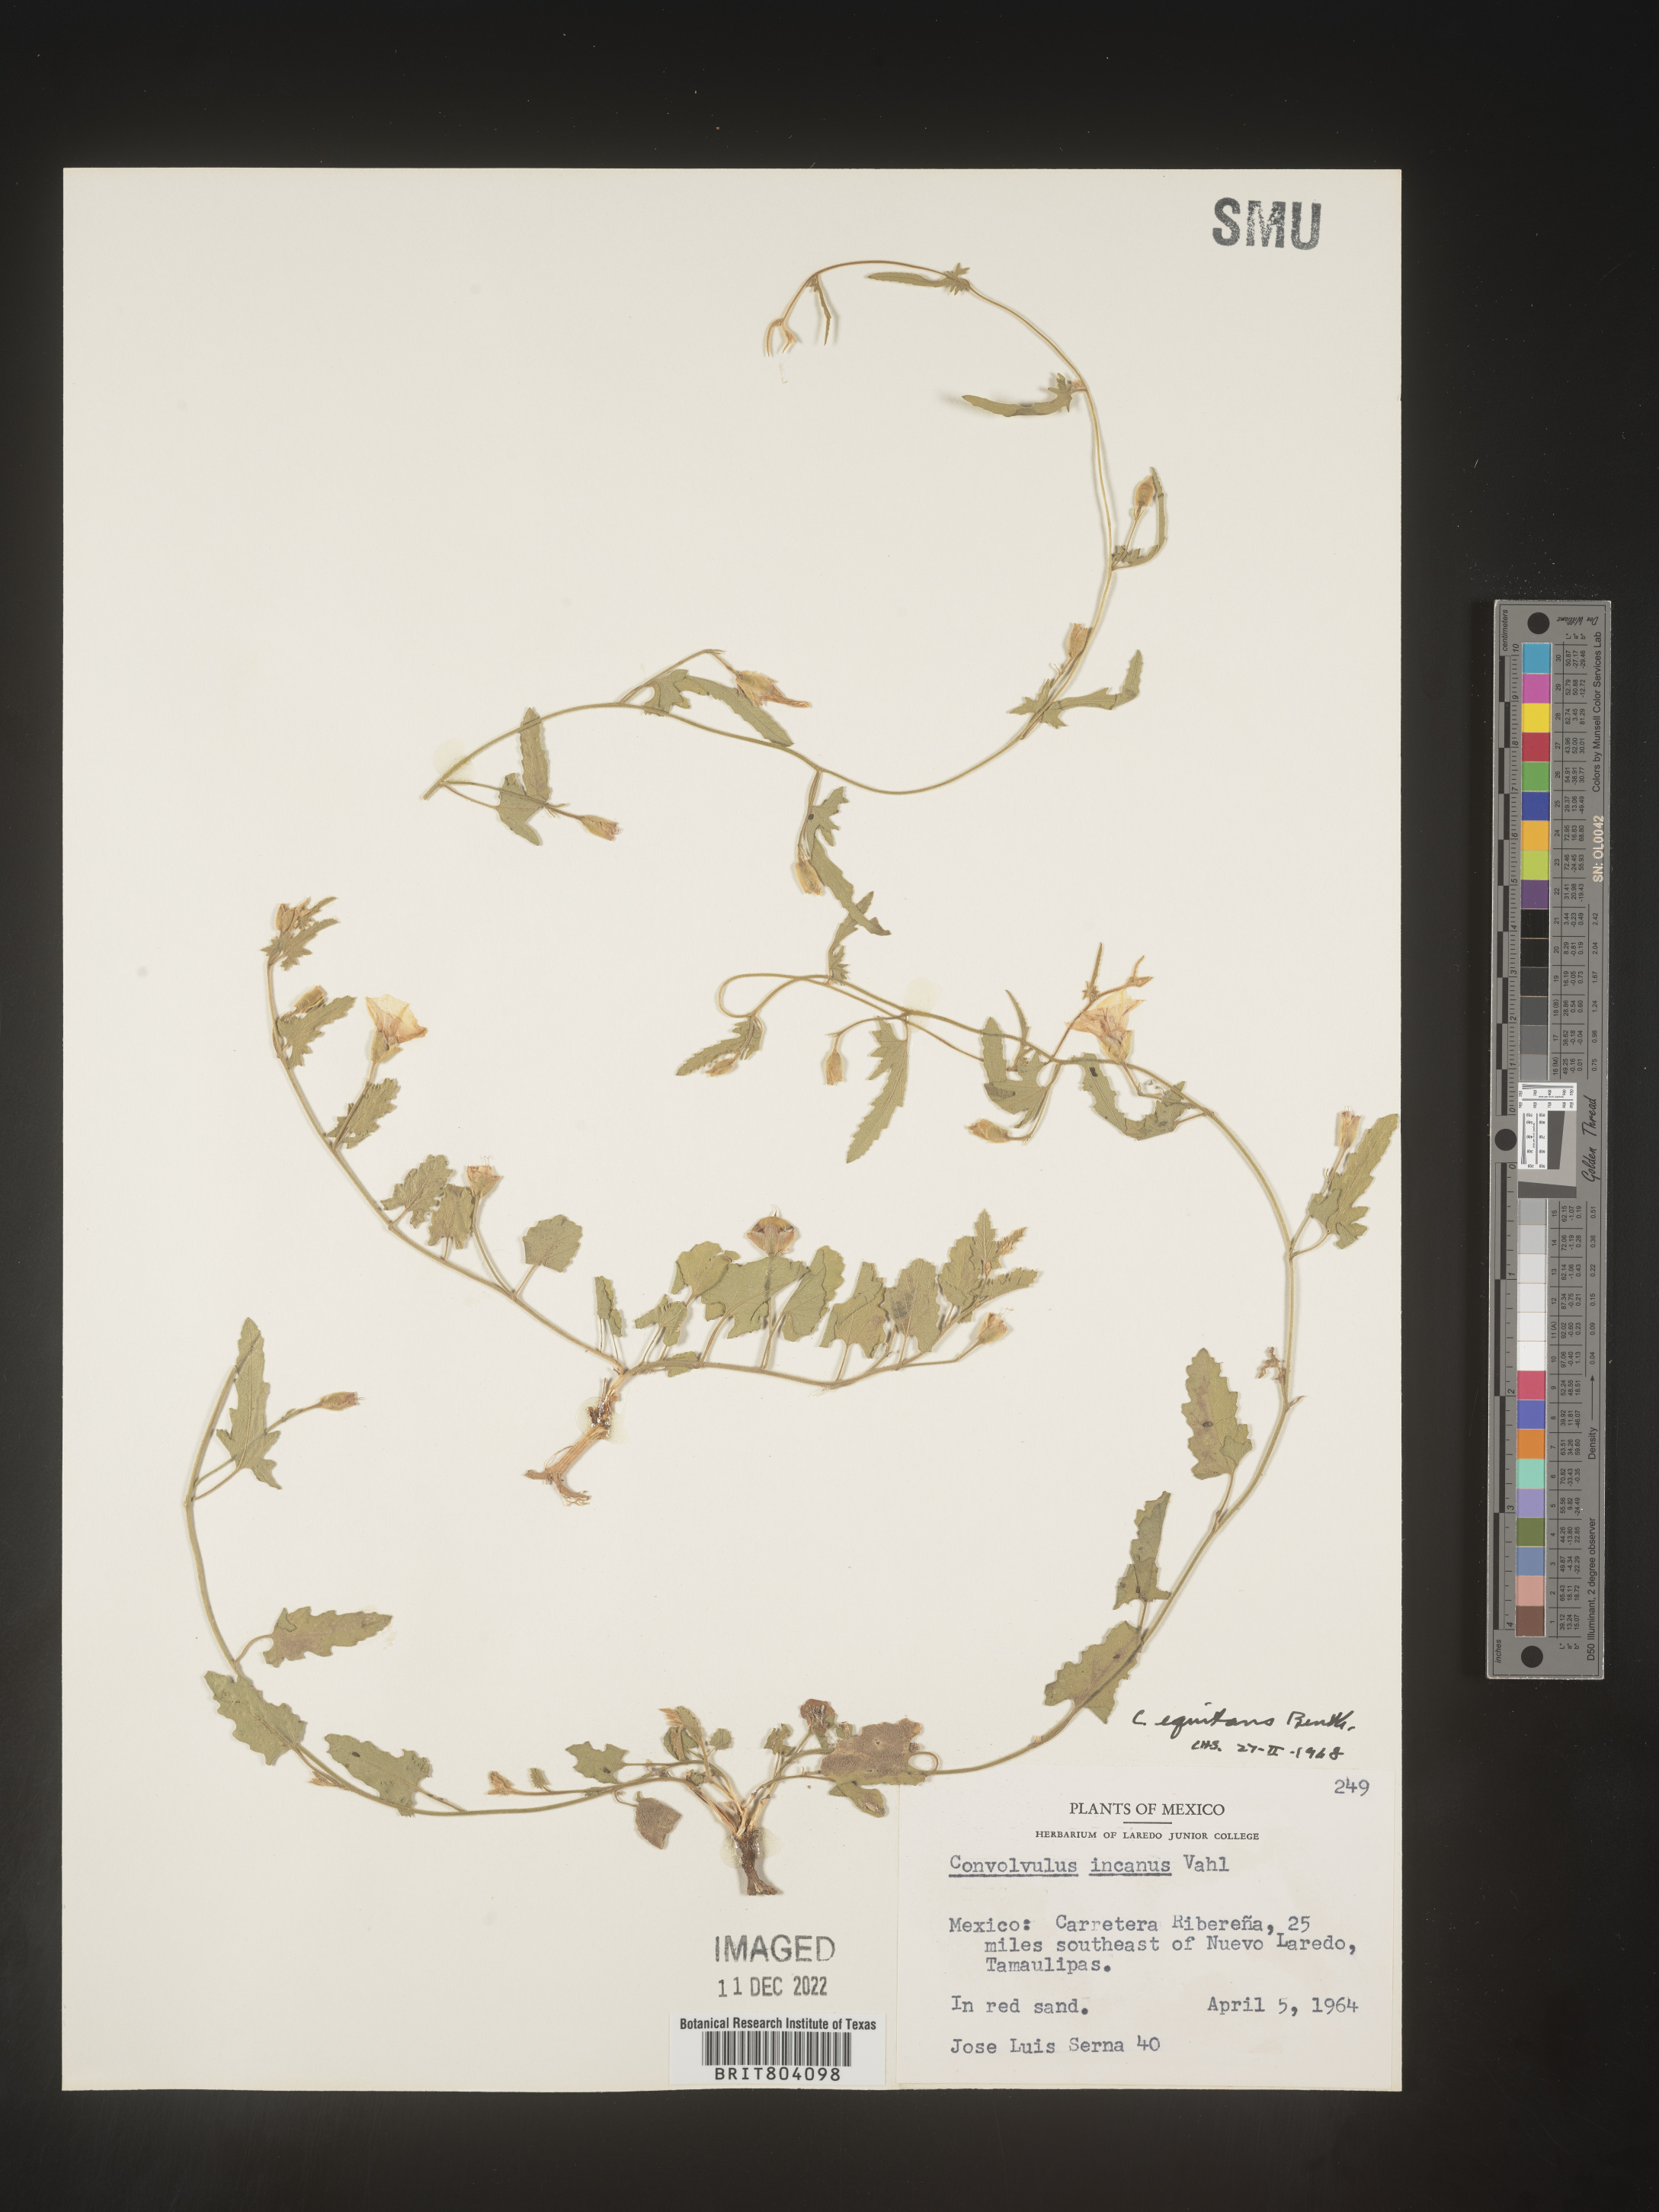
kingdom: Plantae
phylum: Tracheophyta
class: Magnoliopsida
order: Solanales
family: Convolvulaceae
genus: Convolvulus
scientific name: Convolvulus
